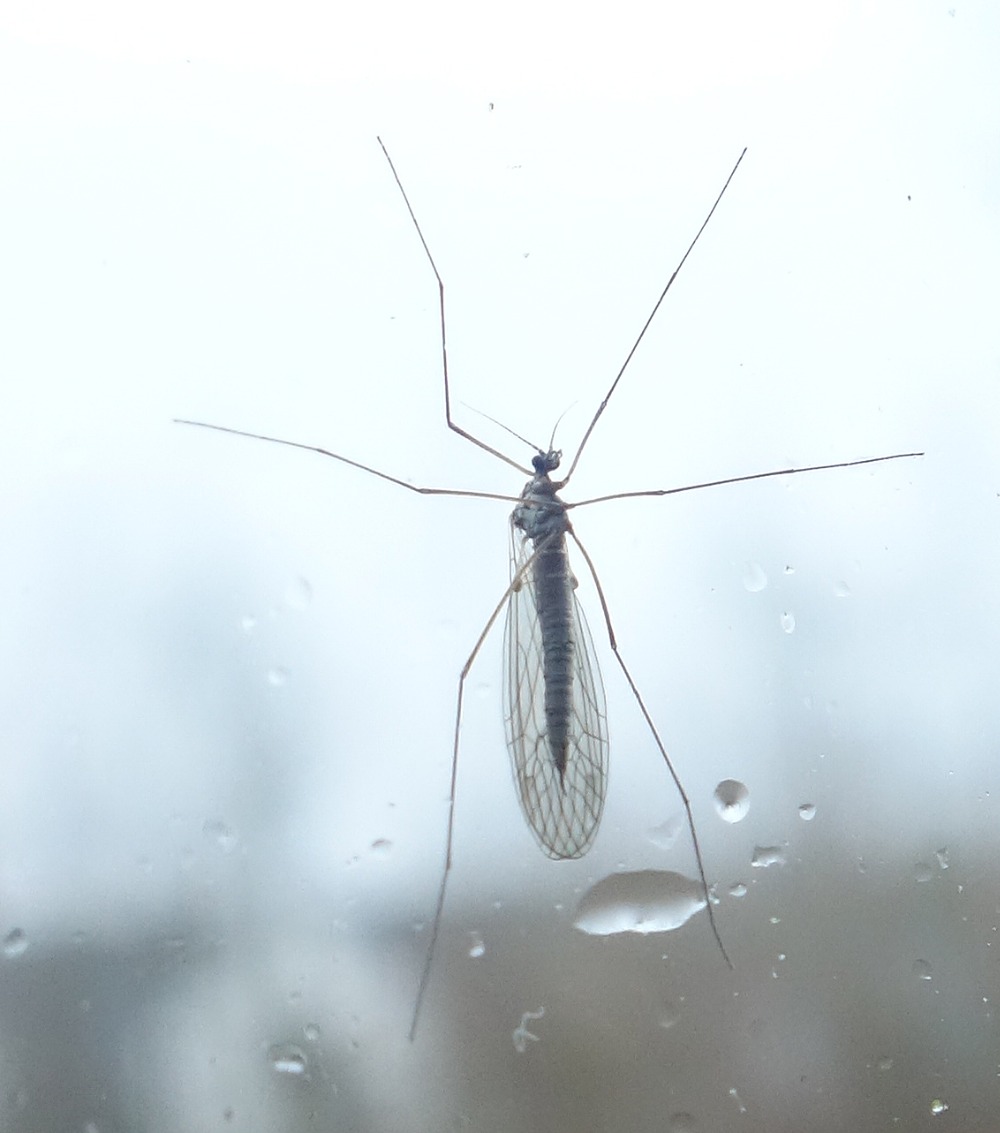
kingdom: Animalia
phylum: Arthropoda
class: Insecta
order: Diptera
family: Trichoceridae
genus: Trichocera
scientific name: Trichocera
